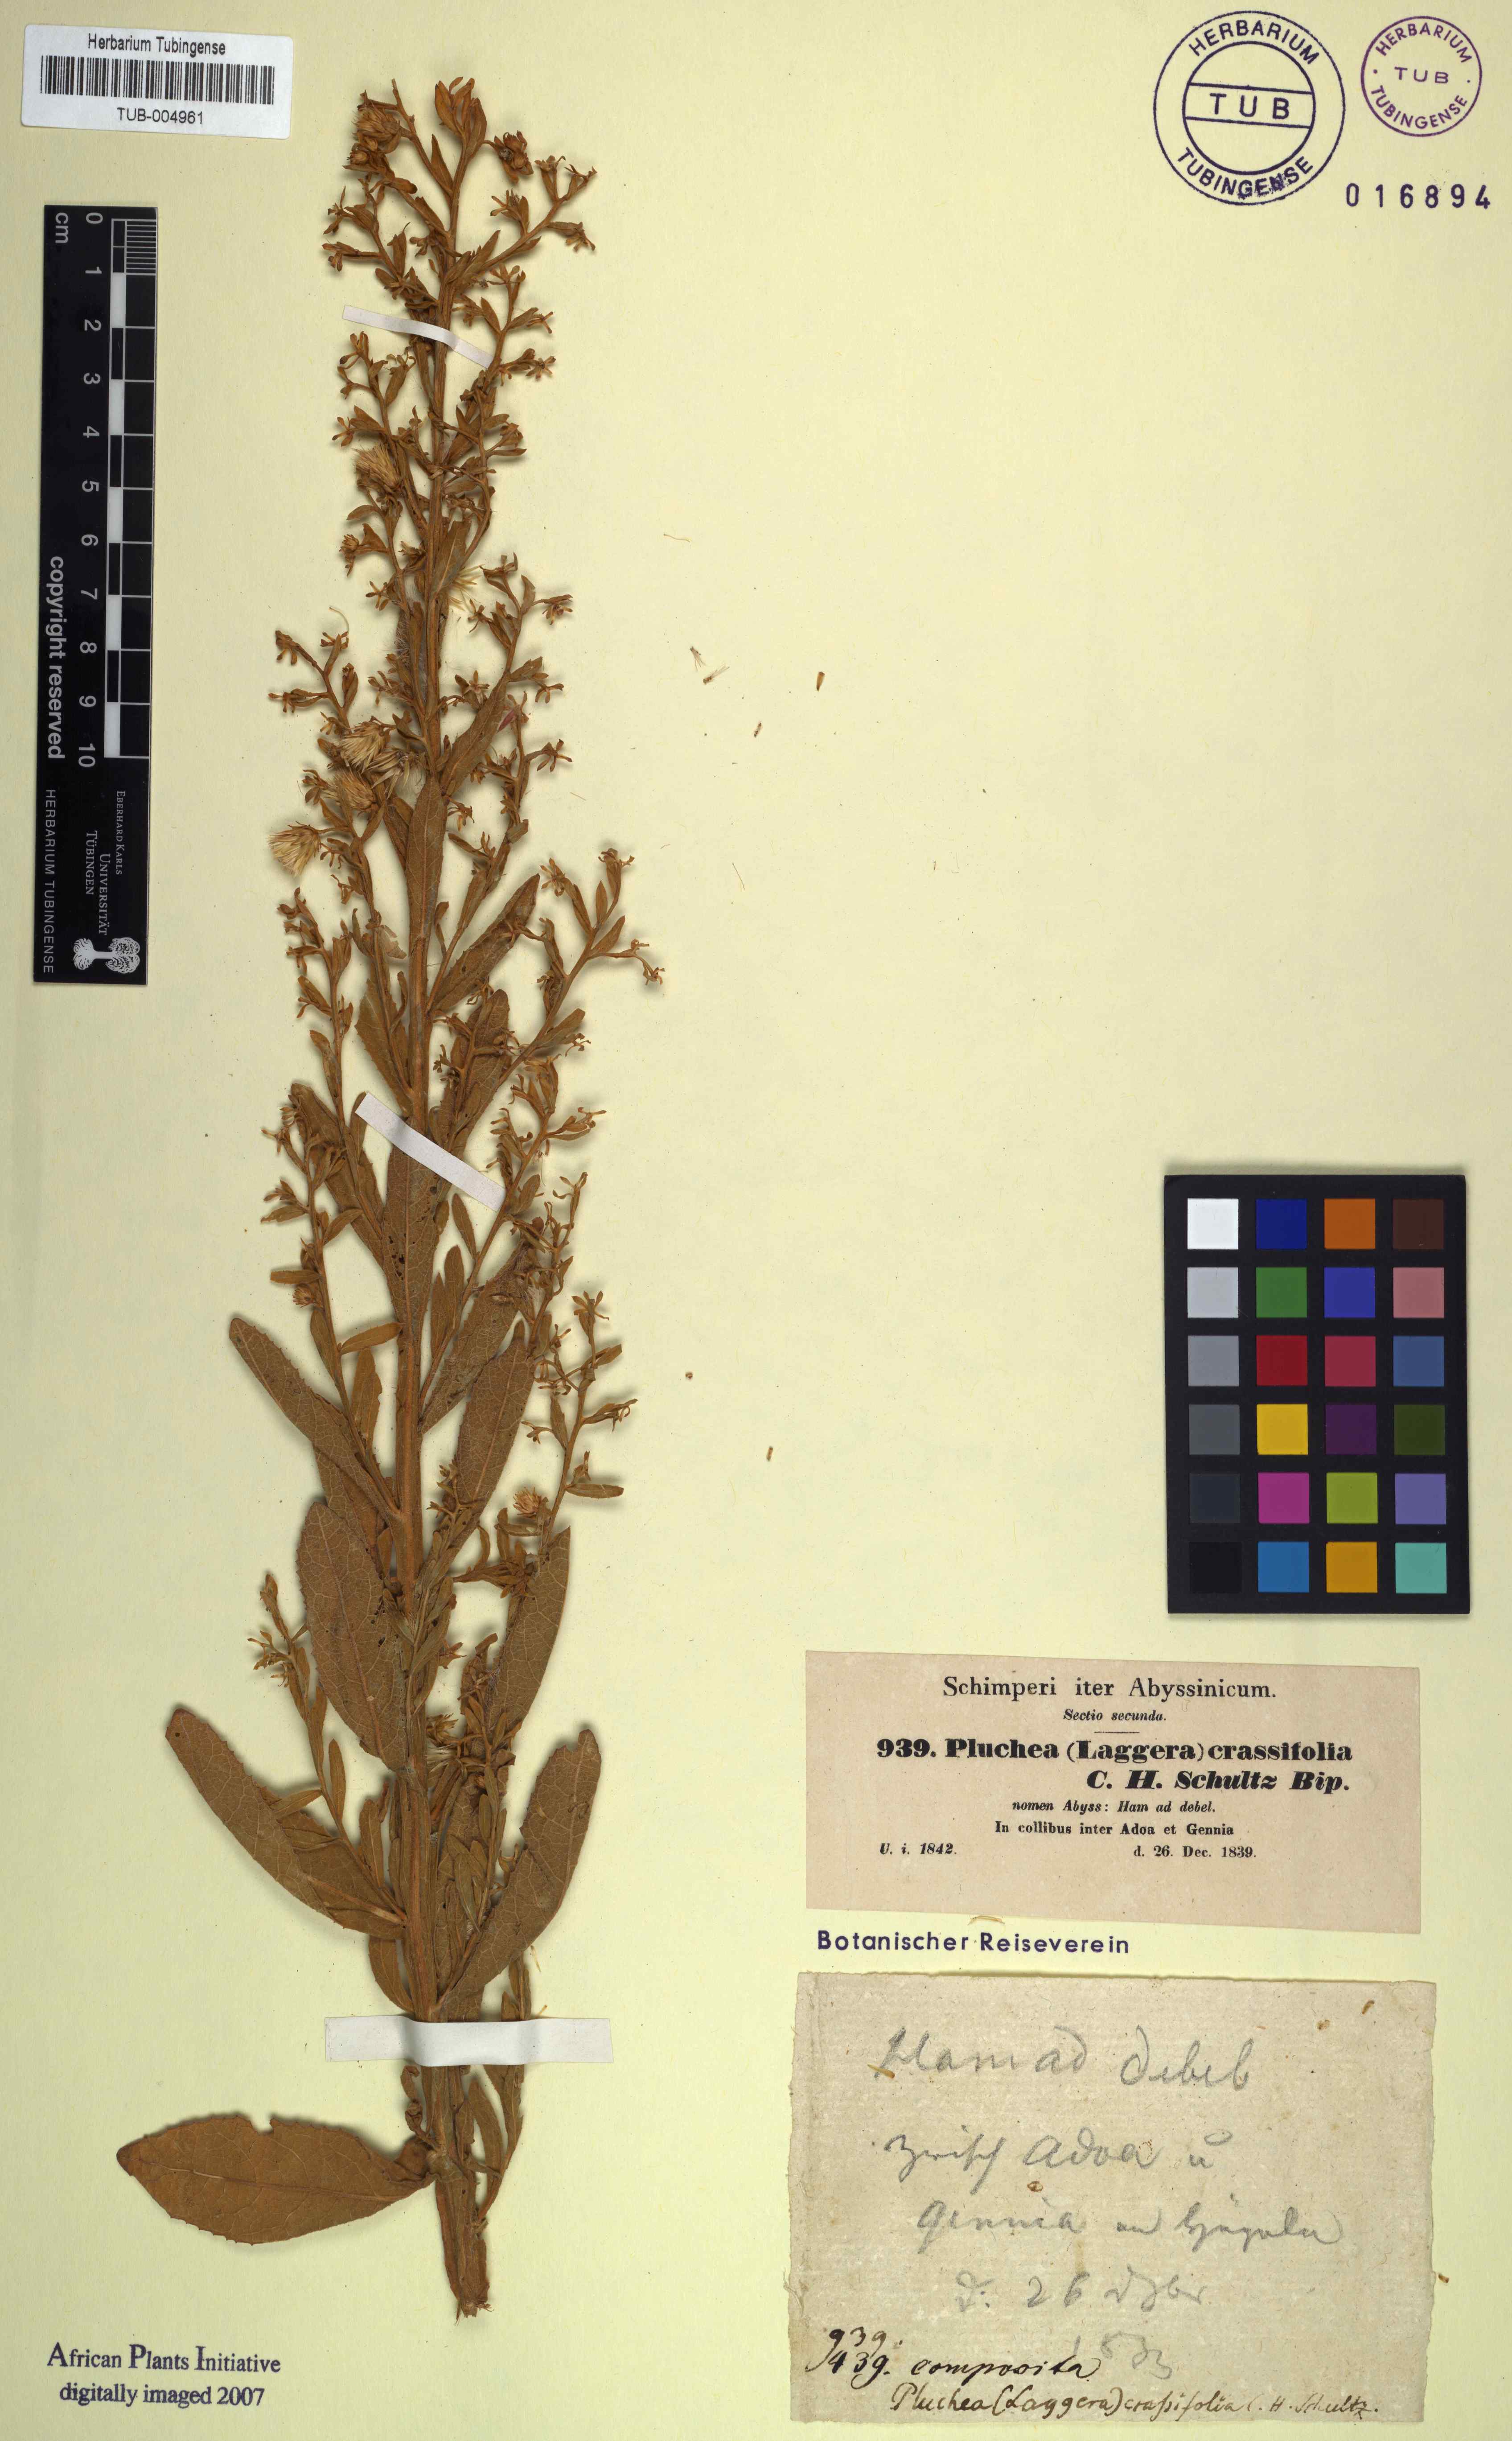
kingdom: Plantae
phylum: Tracheophyta
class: Magnoliopsida
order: Asterales
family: Asteraceae
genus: Laggera
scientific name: Laggera crassifolia
